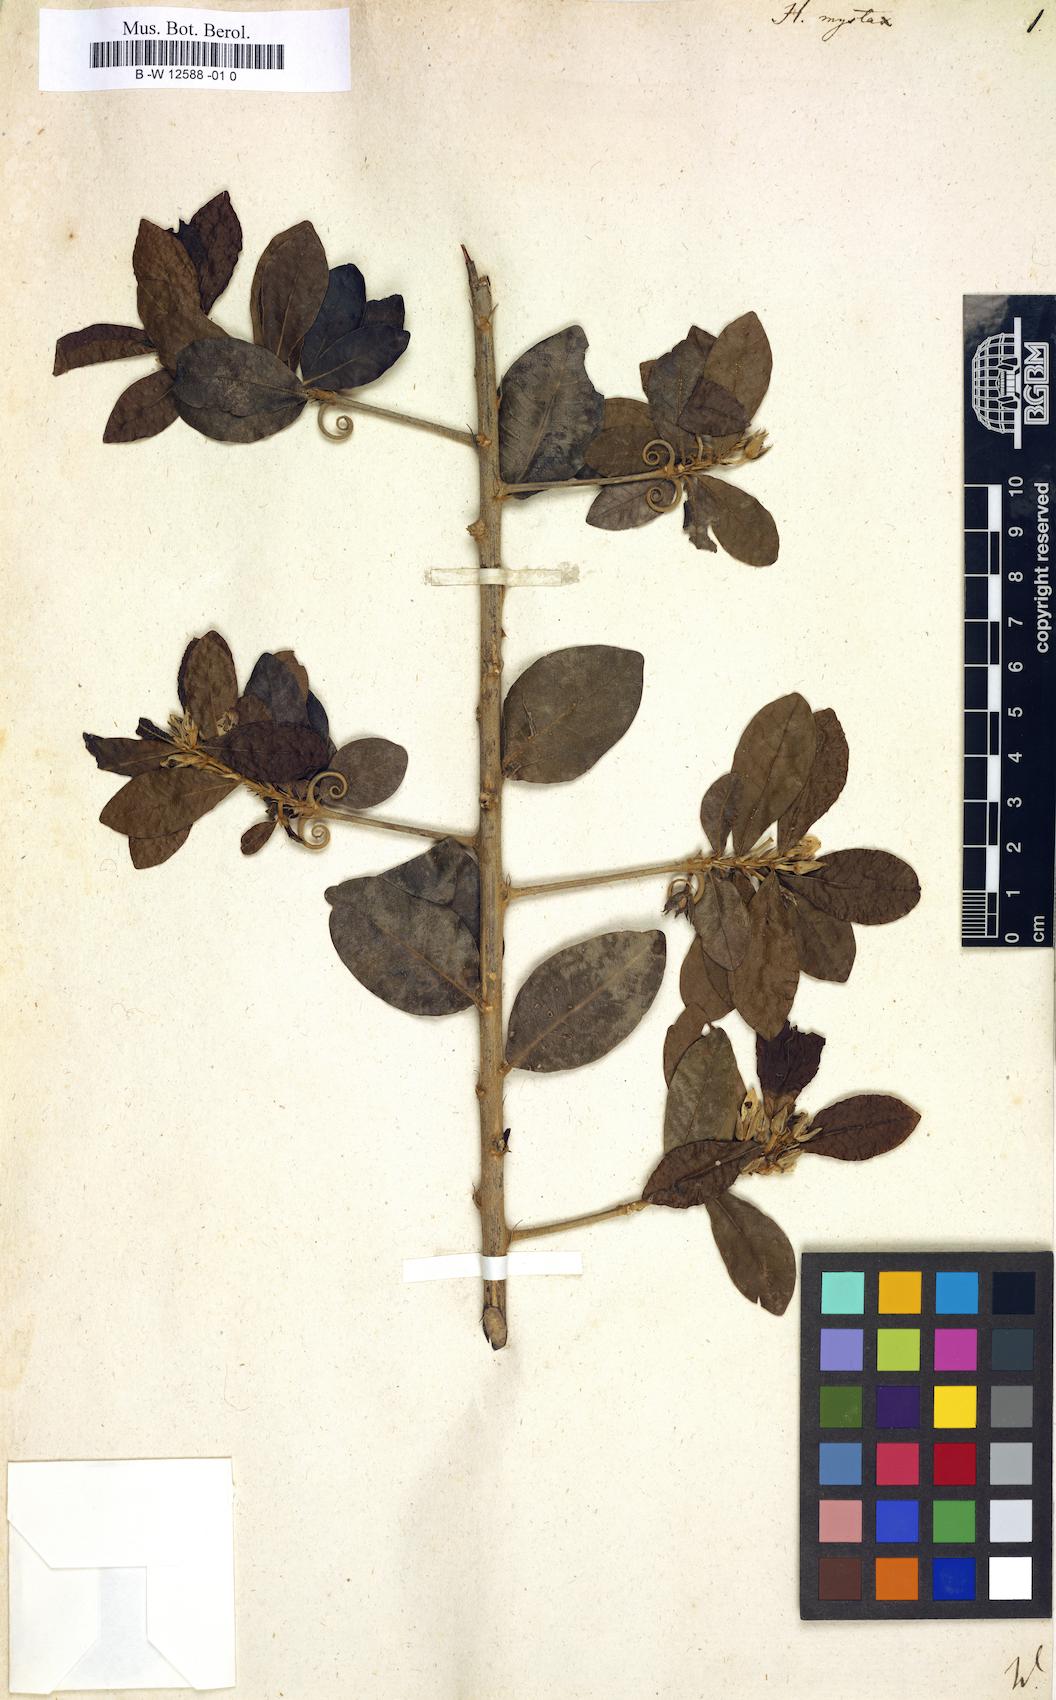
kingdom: Plantae
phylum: Tracheophyta
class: Magnoliopsida
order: Malpighiales
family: Linaceae
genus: Hugonia
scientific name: Hugonia mystax
